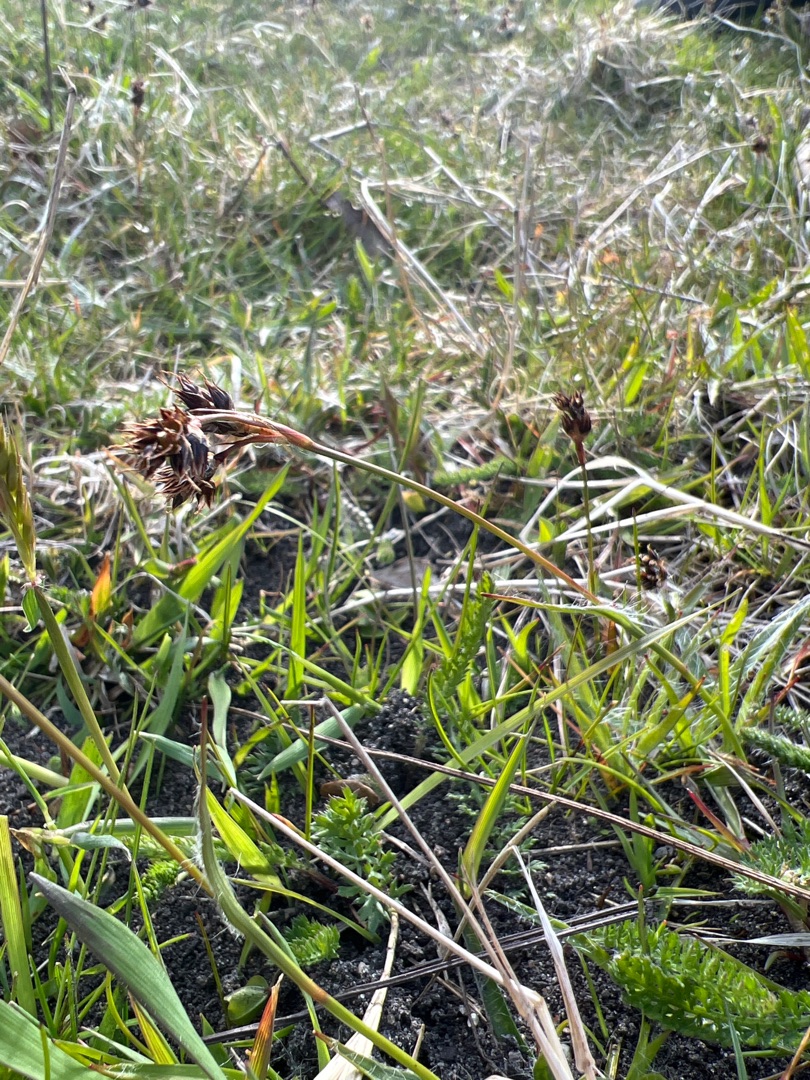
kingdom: Plantae
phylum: Tracheophyta
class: Liliopsida
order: Poales
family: Juncaceae
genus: Luzula
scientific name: Luzula campestris
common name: Mark-frytle
